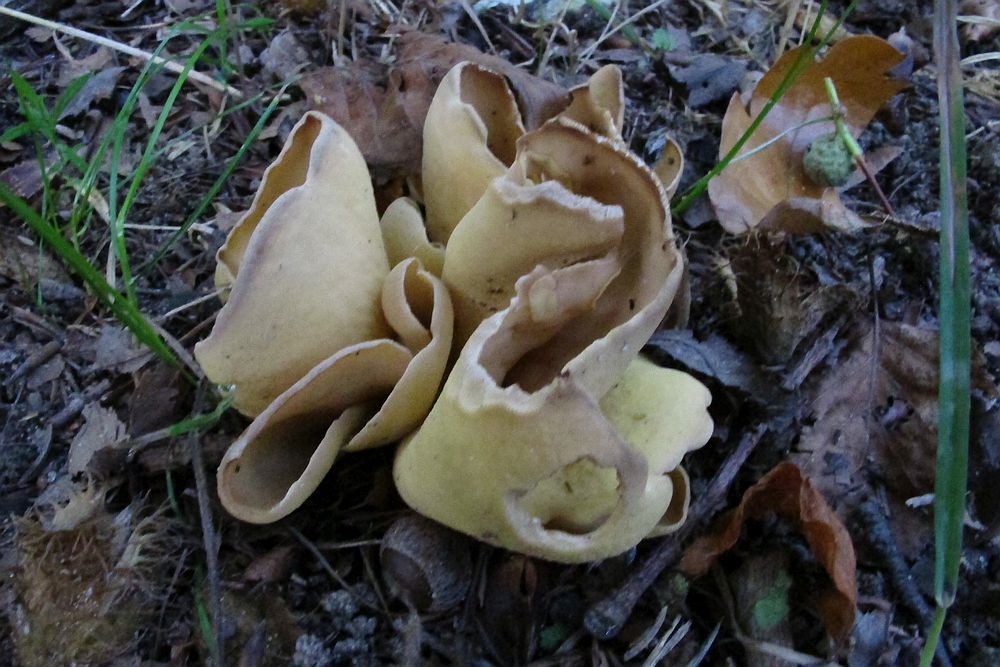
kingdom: Fungi
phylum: Ascomycota
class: Pezizomycetes
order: Pezizales
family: Otideaceae
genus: Otidea
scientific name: Otidea cantharella
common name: citrongul ørebæger
